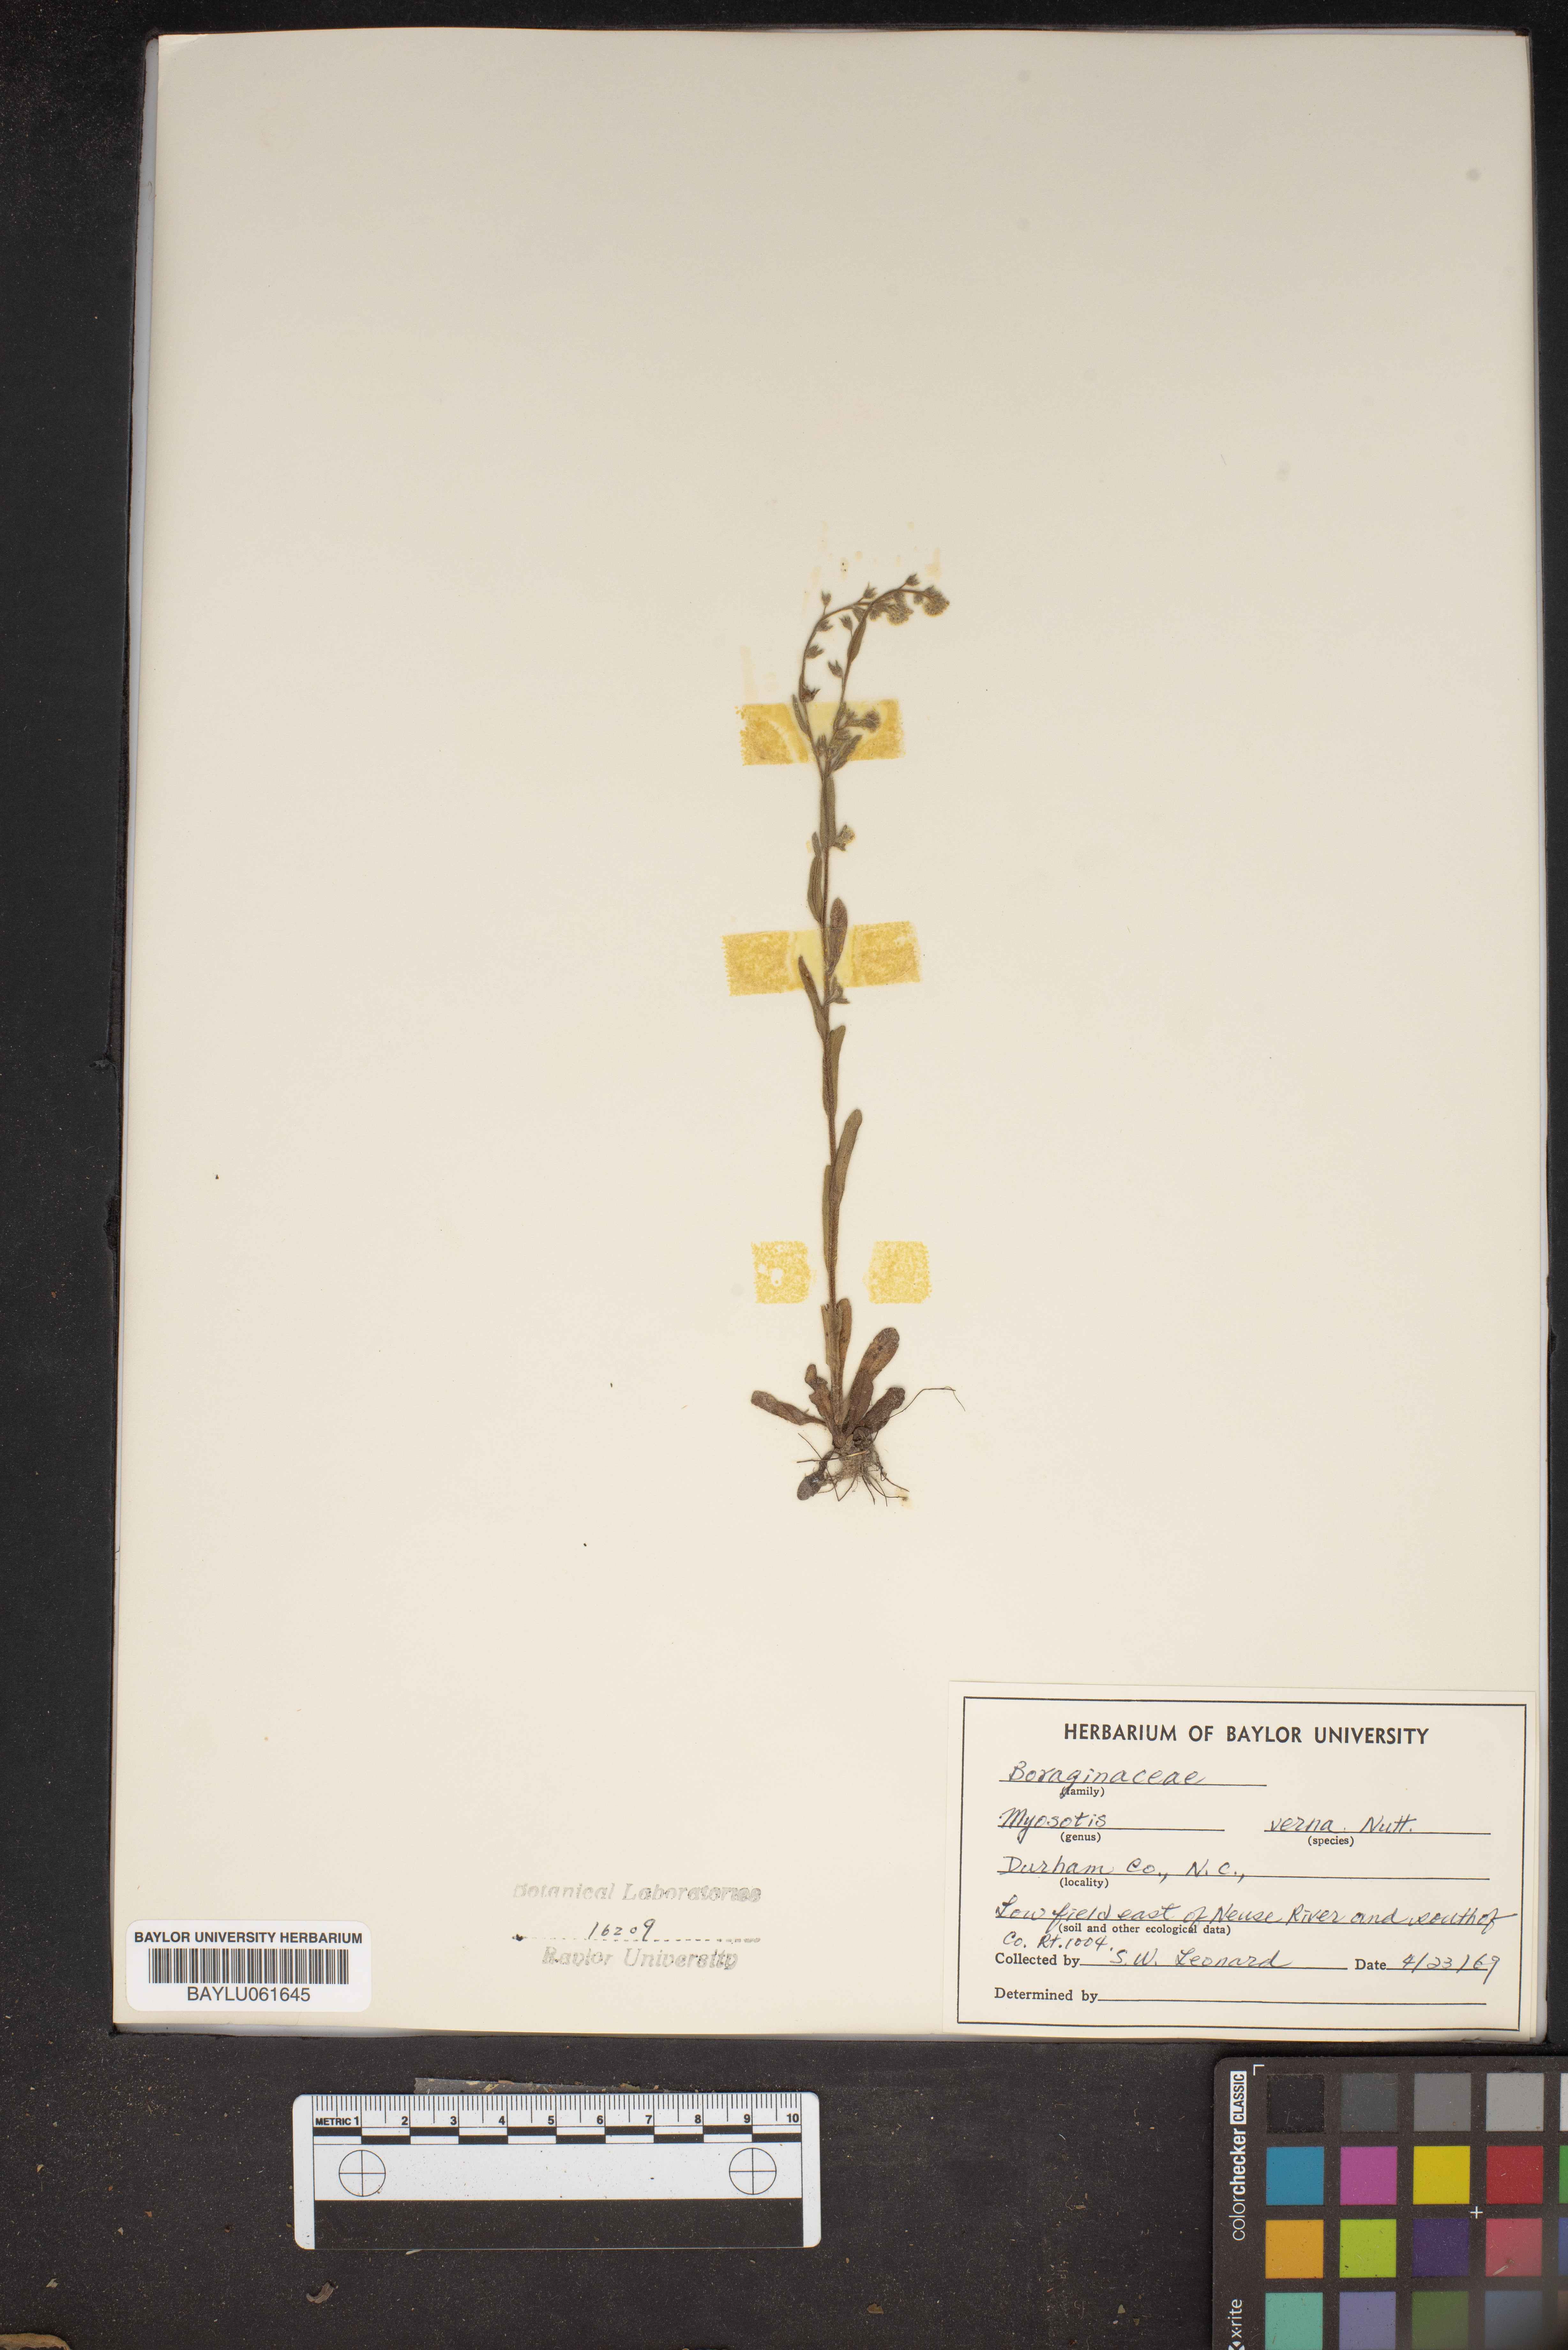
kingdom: Plantae
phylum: Tracheophyta
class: Magnoliopsida
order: Boraginales
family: Boraginaceae
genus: Myosotis
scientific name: Myosotis verna
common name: Early forget-me-not
